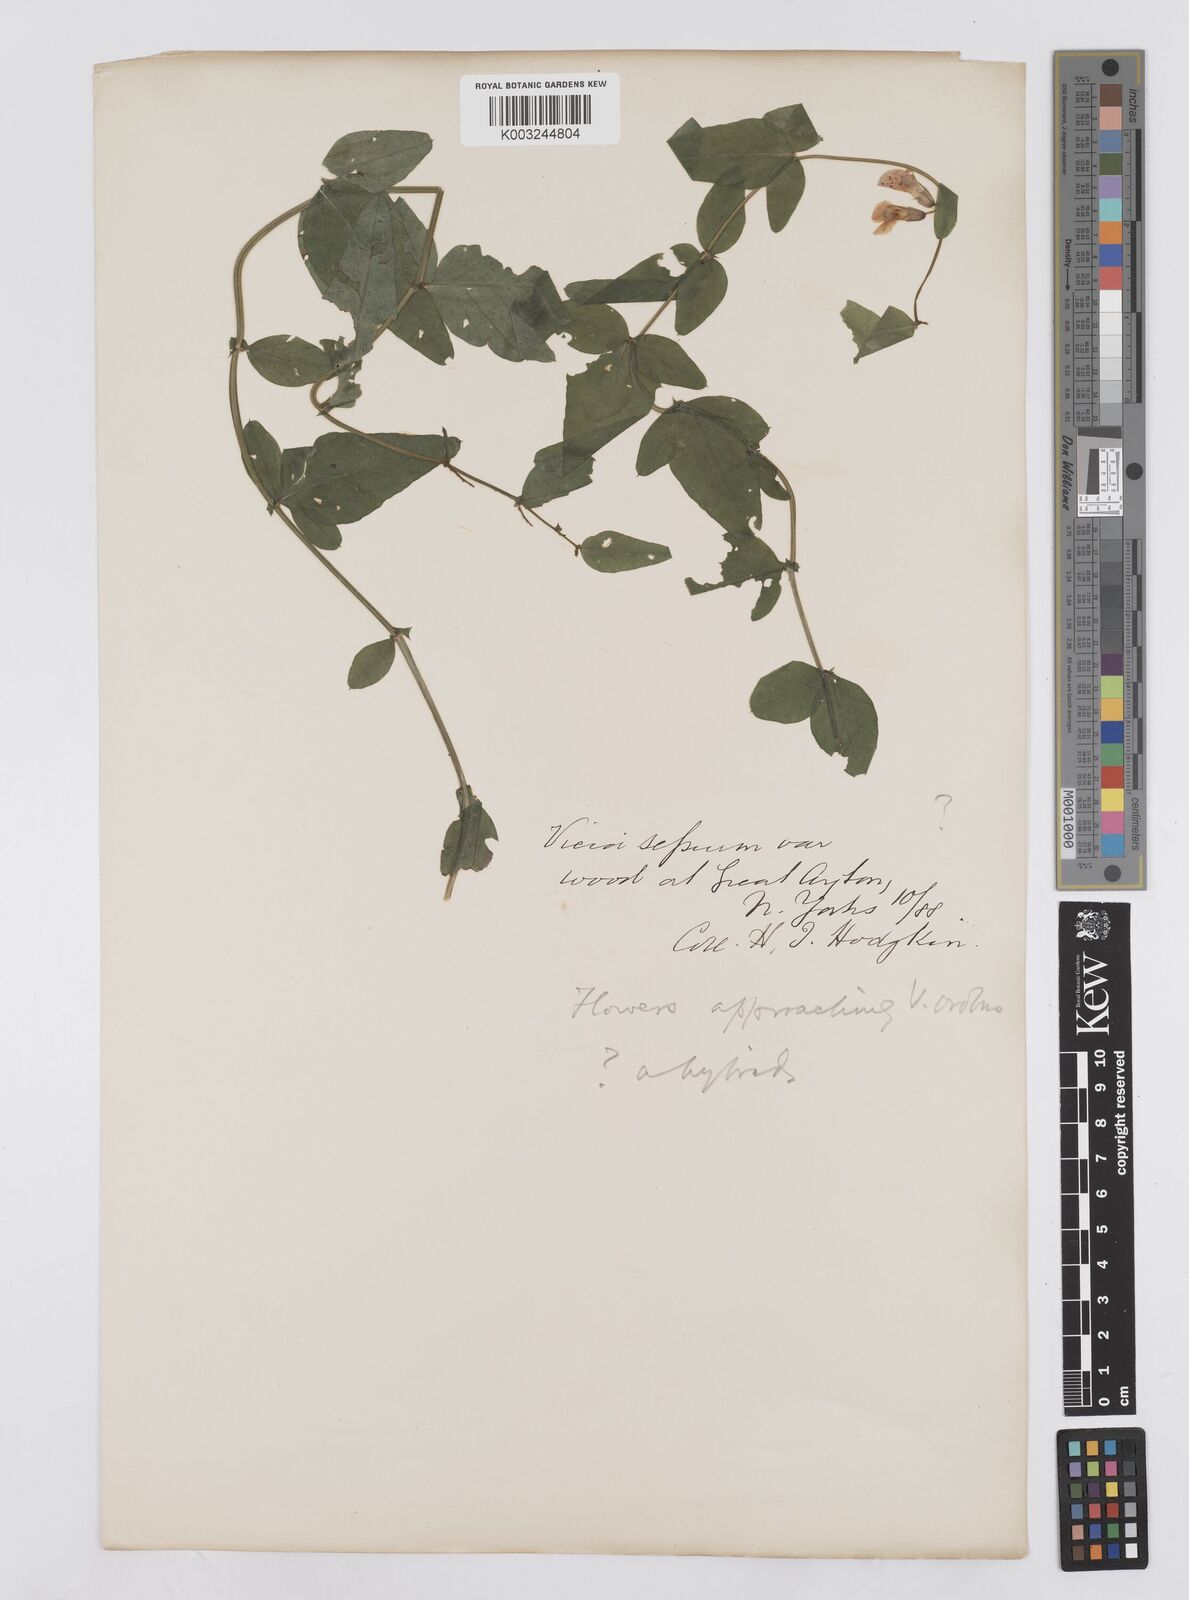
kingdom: Plantae
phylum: Tracheophyta
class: Magnoliopsida
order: Fabales
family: Fabaceae
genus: Vicia
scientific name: Vicia sepium
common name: Bush vetch
